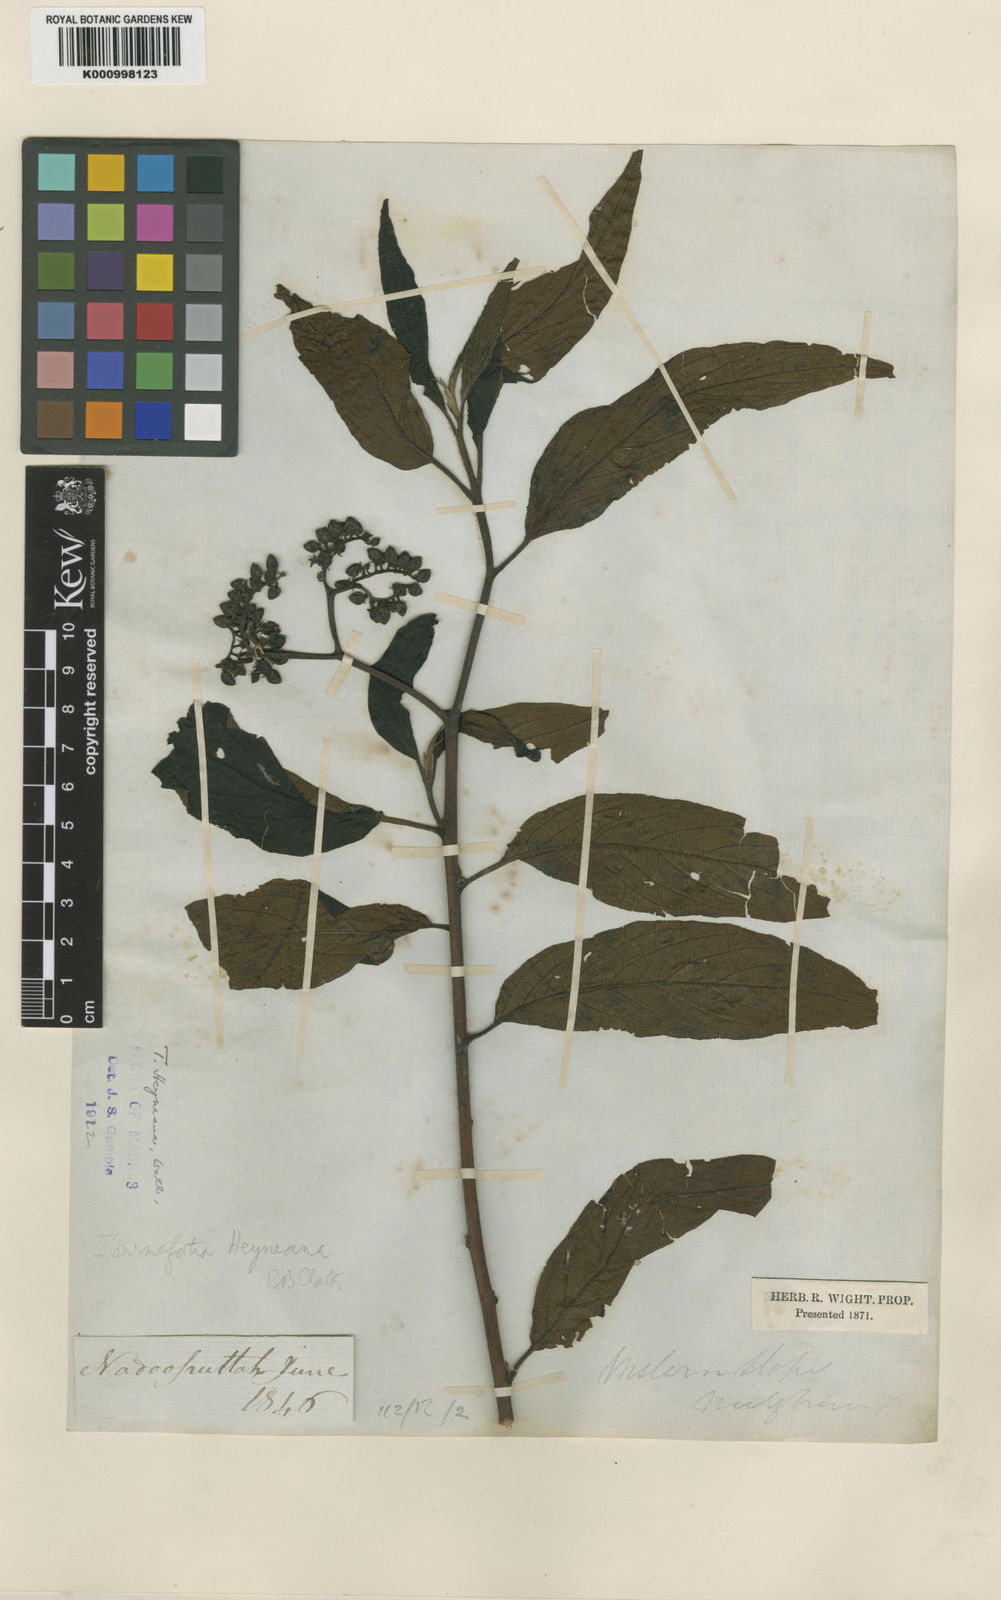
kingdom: Plantae
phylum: Tracheophyta
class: Magnoliopsida
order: Boraginales
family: Heliotropiaceae
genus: Tournefortia
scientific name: Tournefortia
